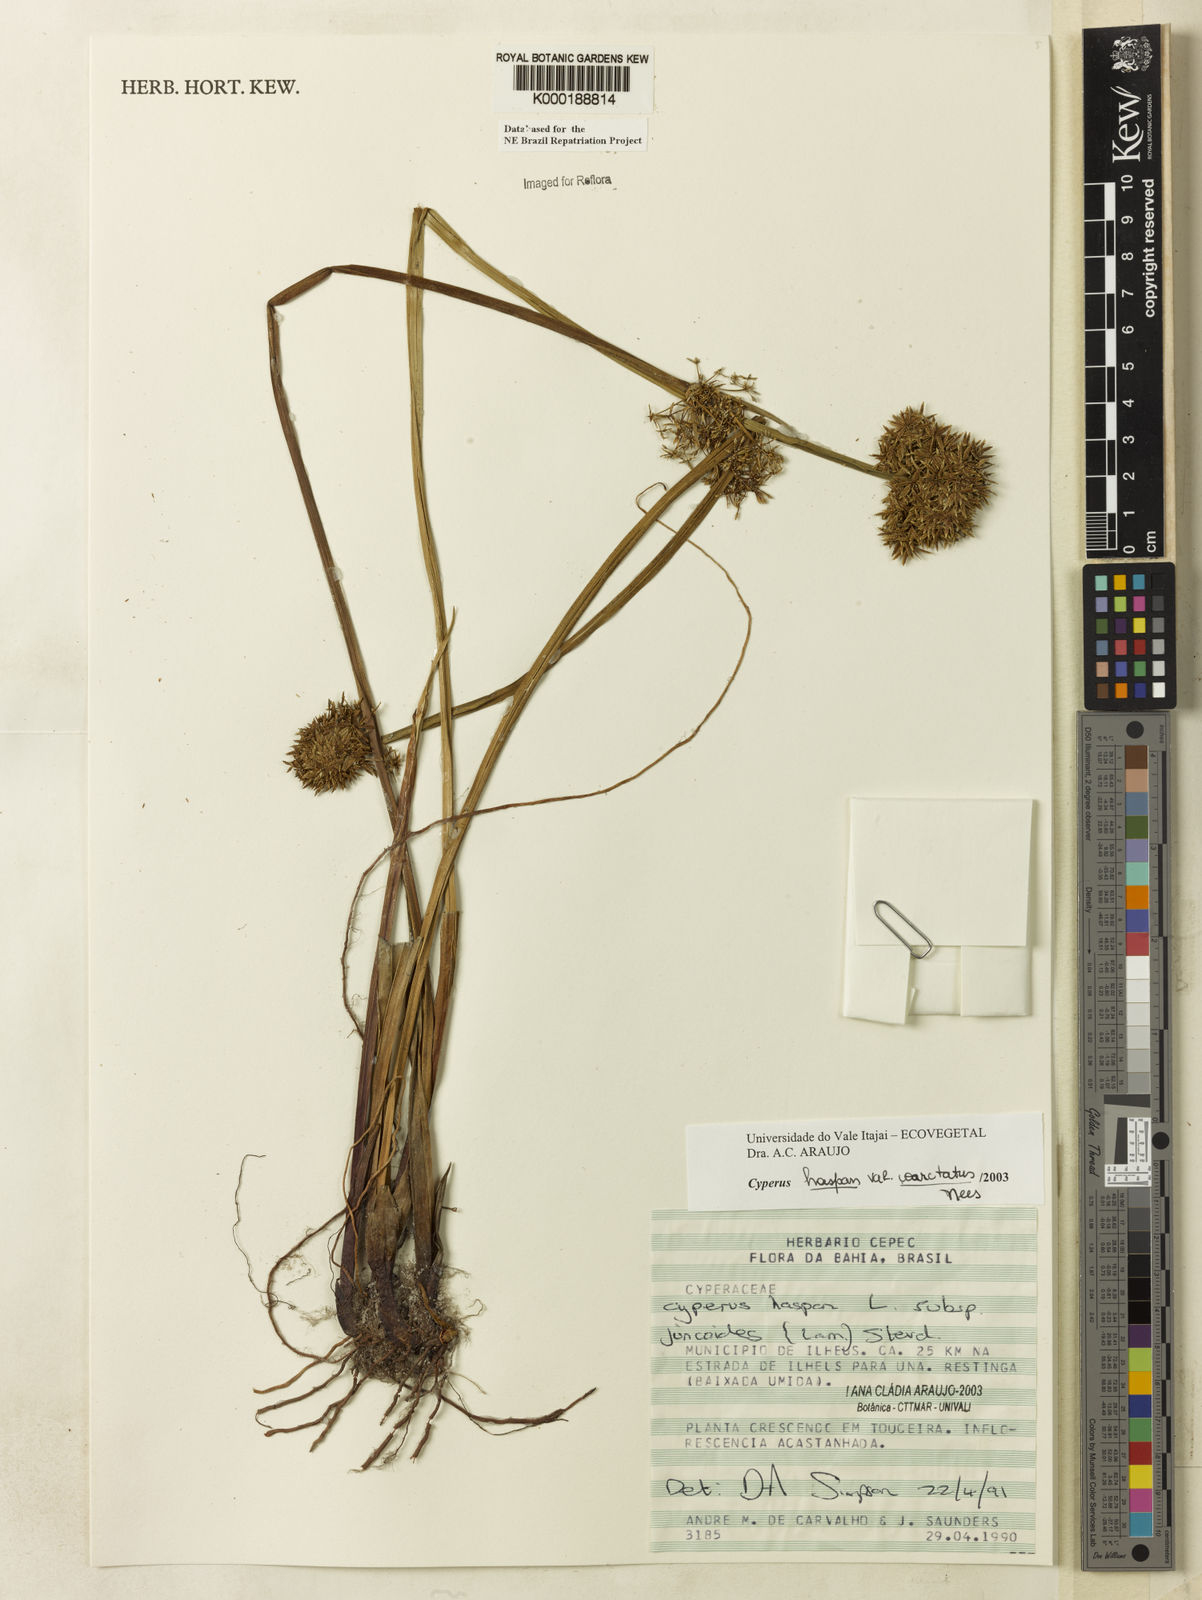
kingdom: Plantae
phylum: Tracheophyta
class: Liliopsida
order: Poales
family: Cyperaceae
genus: Cyperus
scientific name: Cyperus haspan
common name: Haspan flatsedge
